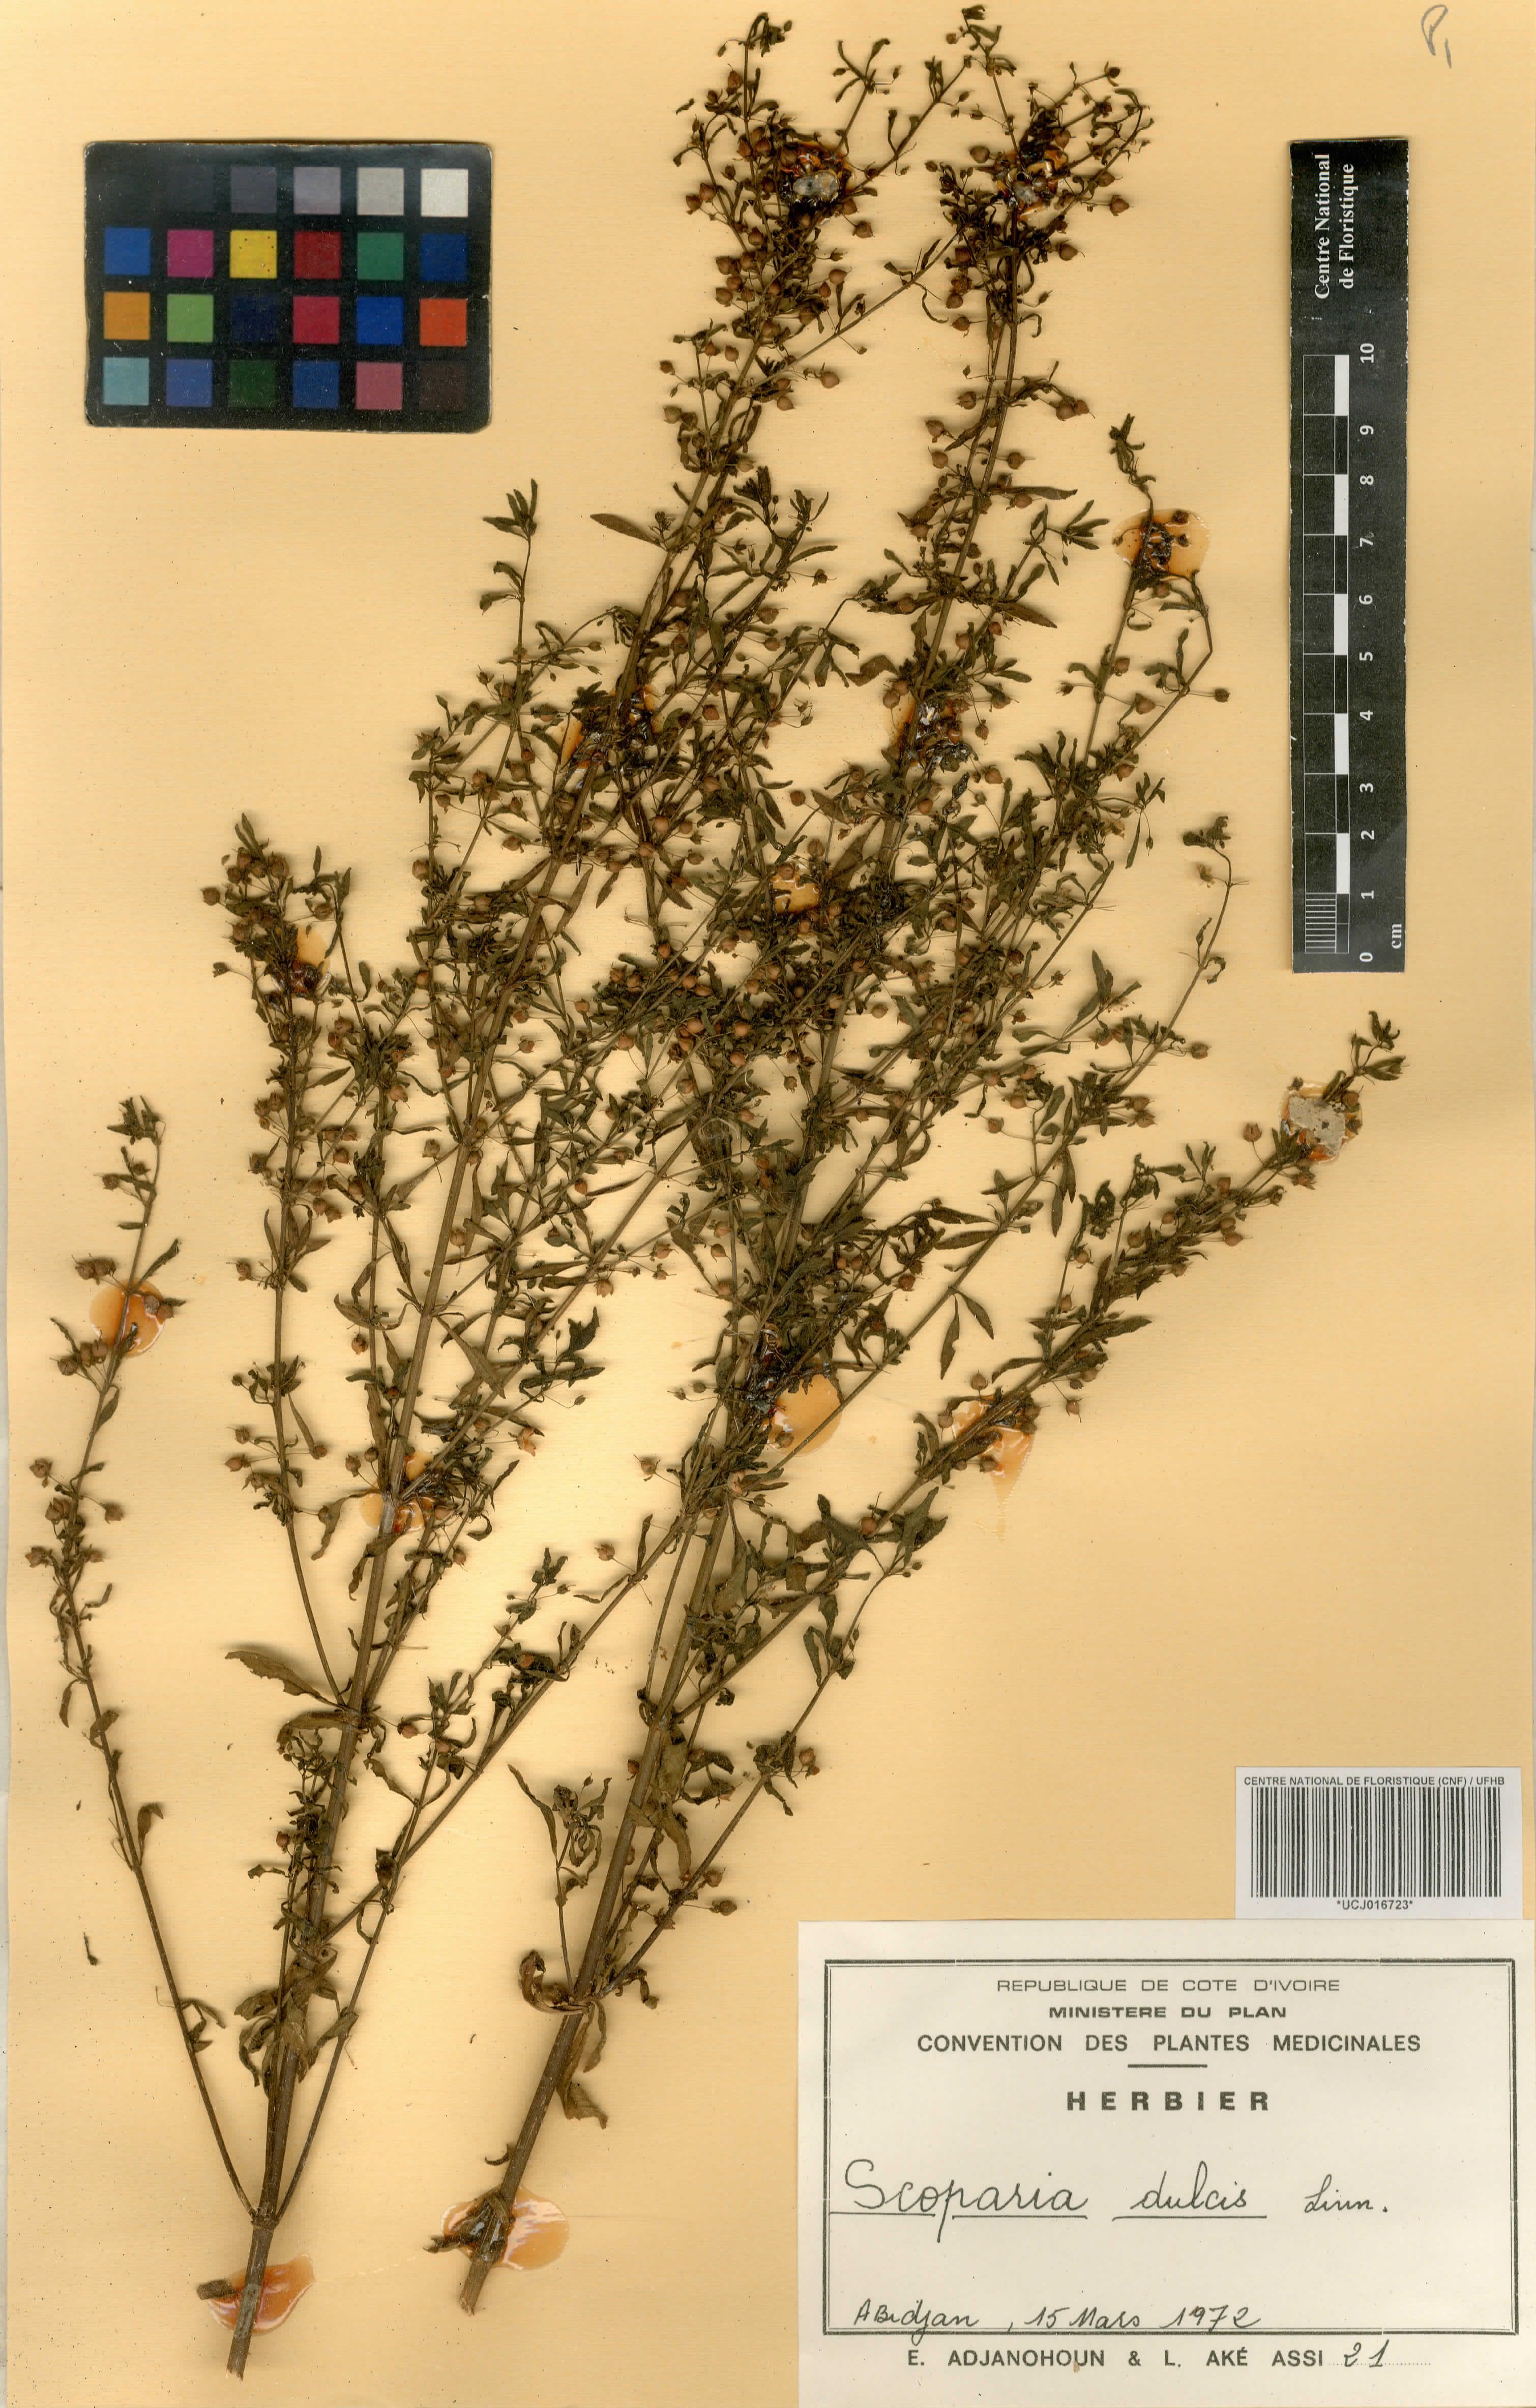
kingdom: Plantae
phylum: Tracheophyta
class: Magnoliopsida
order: Lamiales
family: Plantaginaceae
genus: Scoparia
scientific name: Scoparia dulcis
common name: Scoparia-weed
